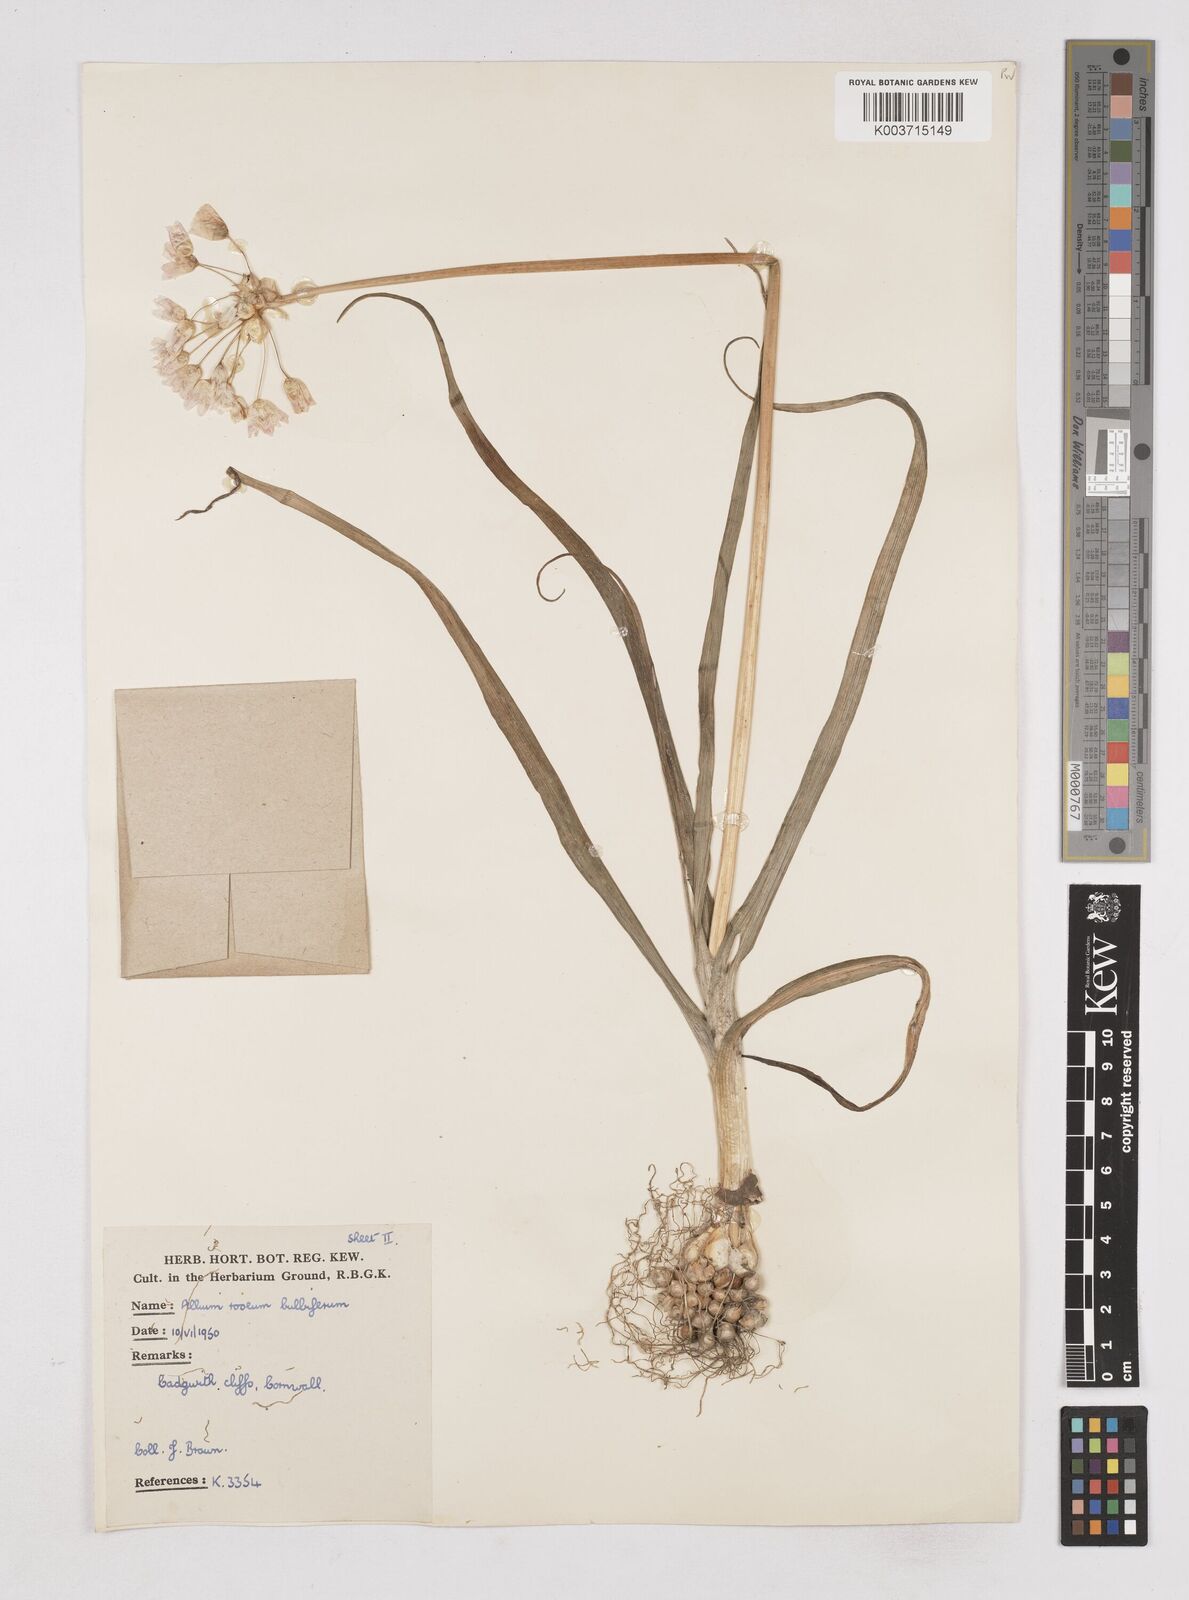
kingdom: Plantae
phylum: Tracheophyta
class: Liliopsida
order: Asparagales
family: Amaryllidaceae
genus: Allium
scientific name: Allium roseum
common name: Rosy garlic
